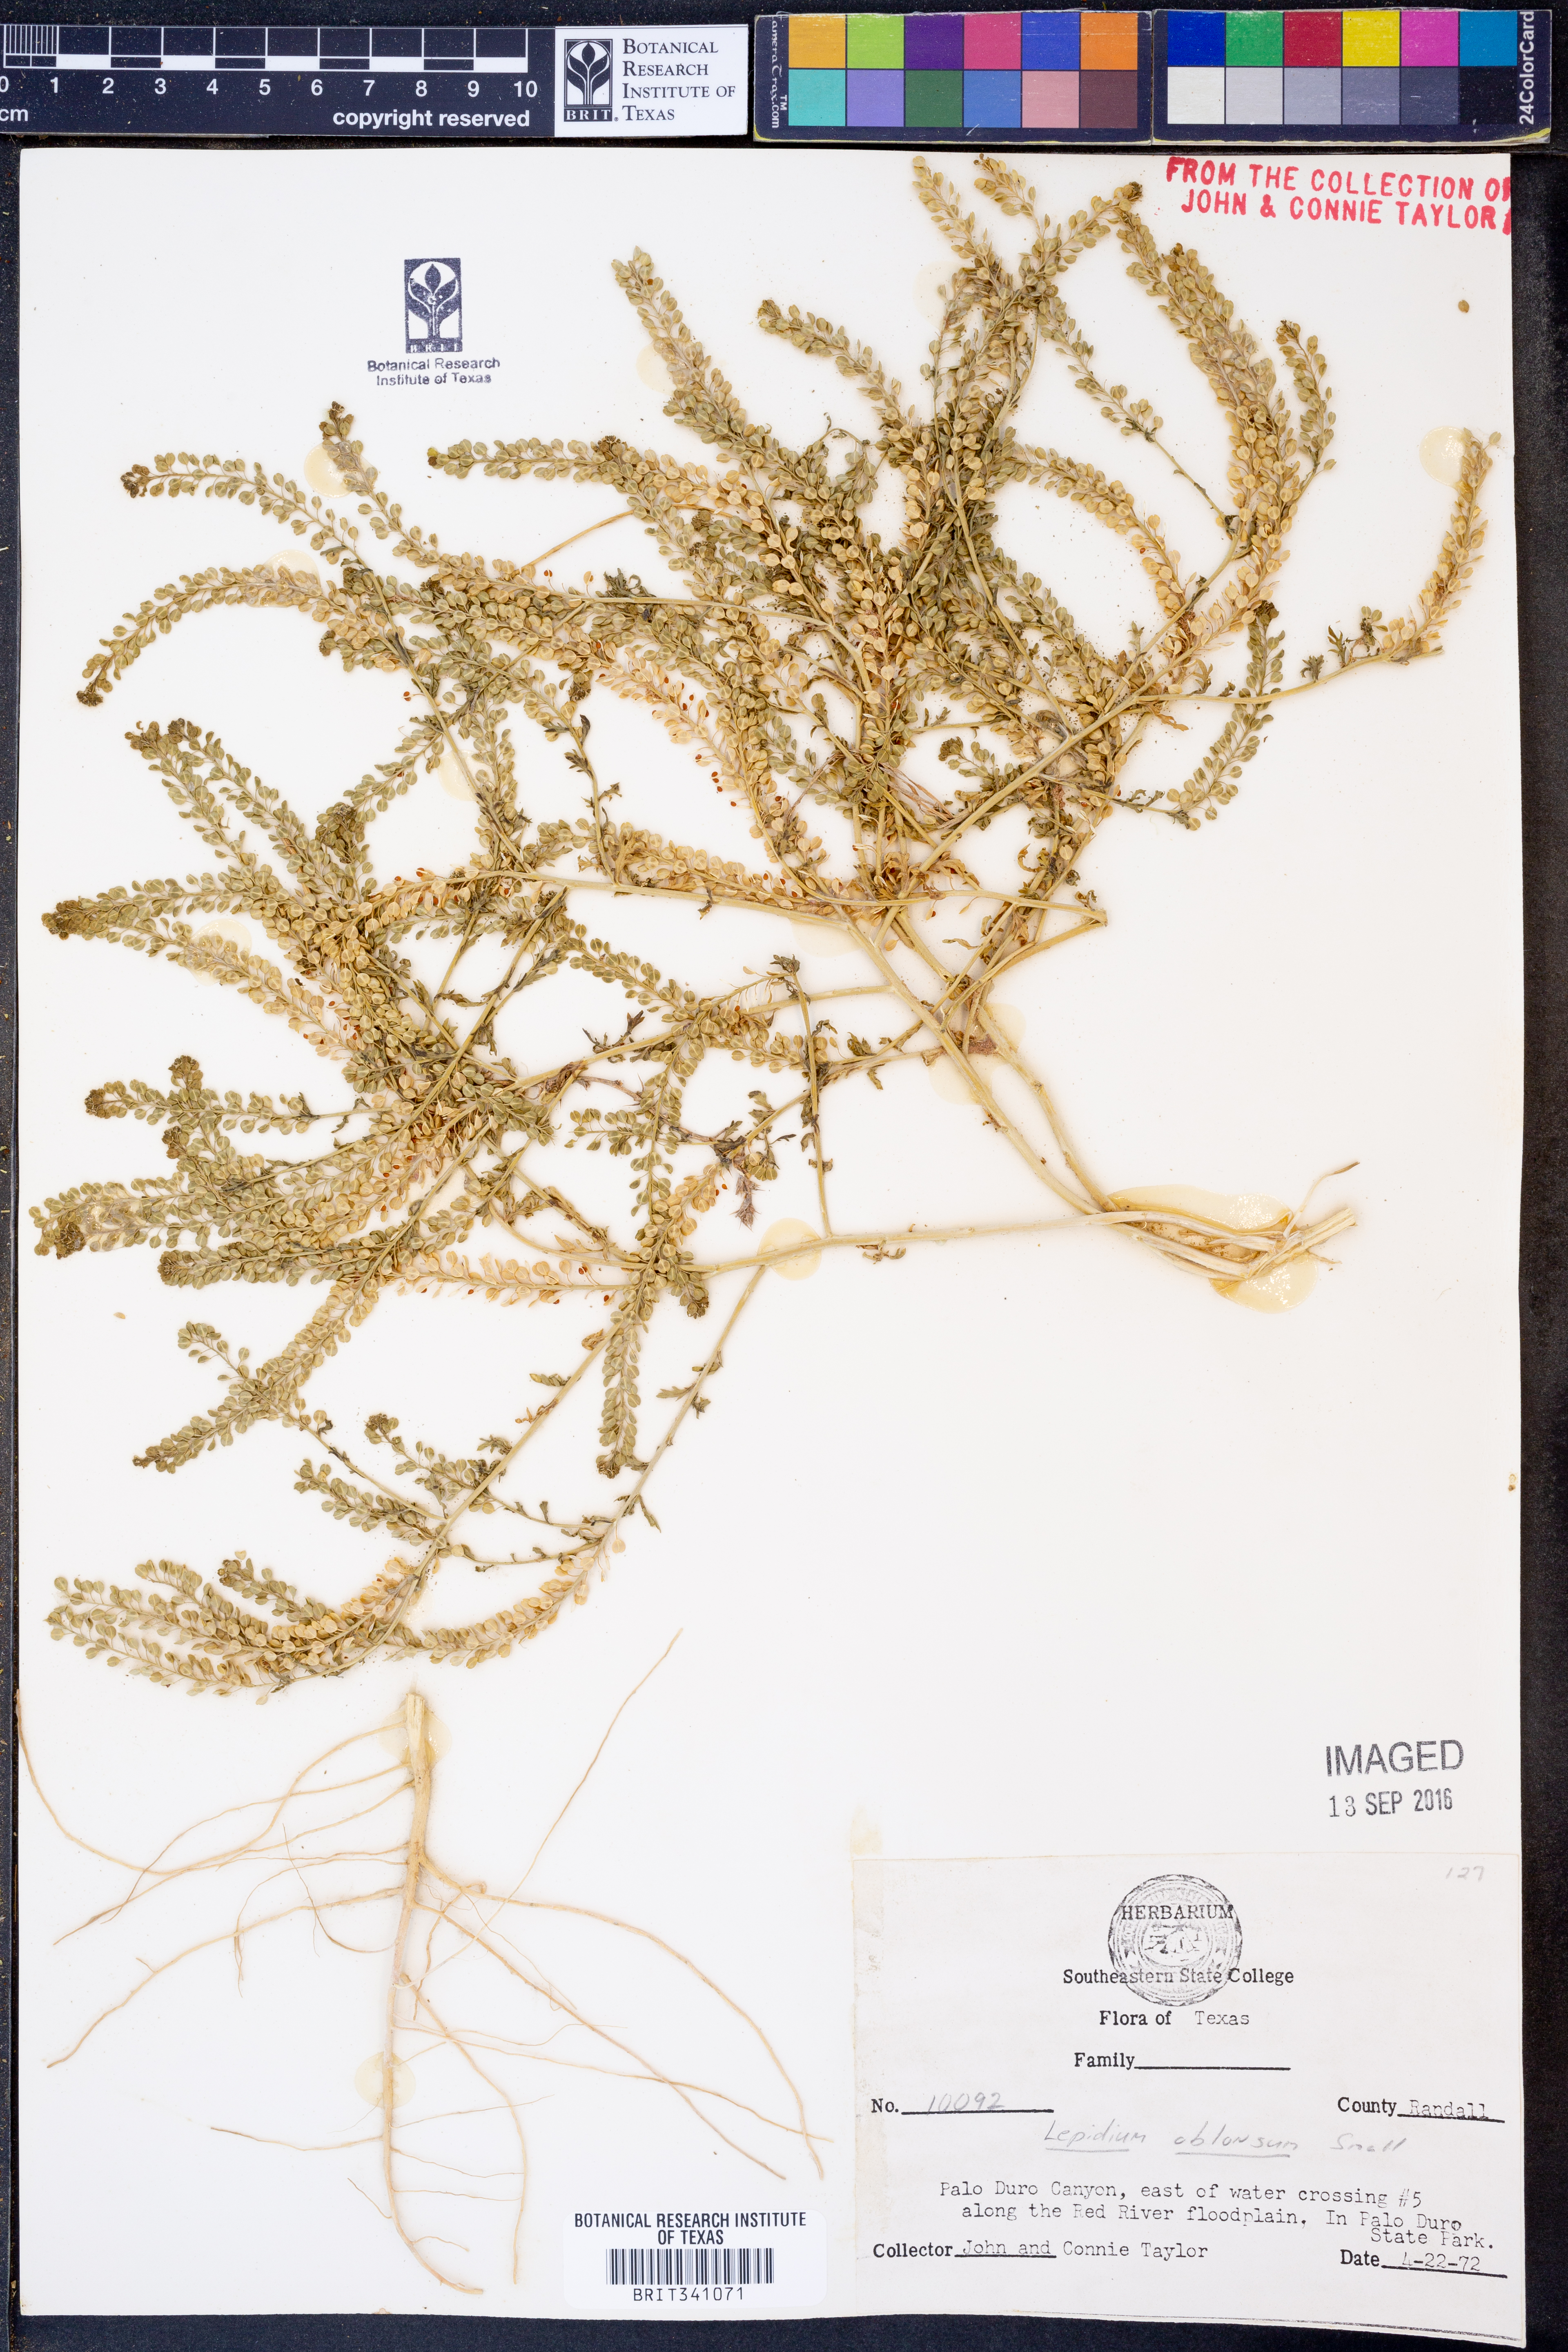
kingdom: Plantae
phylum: Tracheophyta
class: Magnoliopsida
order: Brassicales
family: Brassicaceae
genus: Lepidium
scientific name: Lepidium oblongum
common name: Veiny pepperweed
